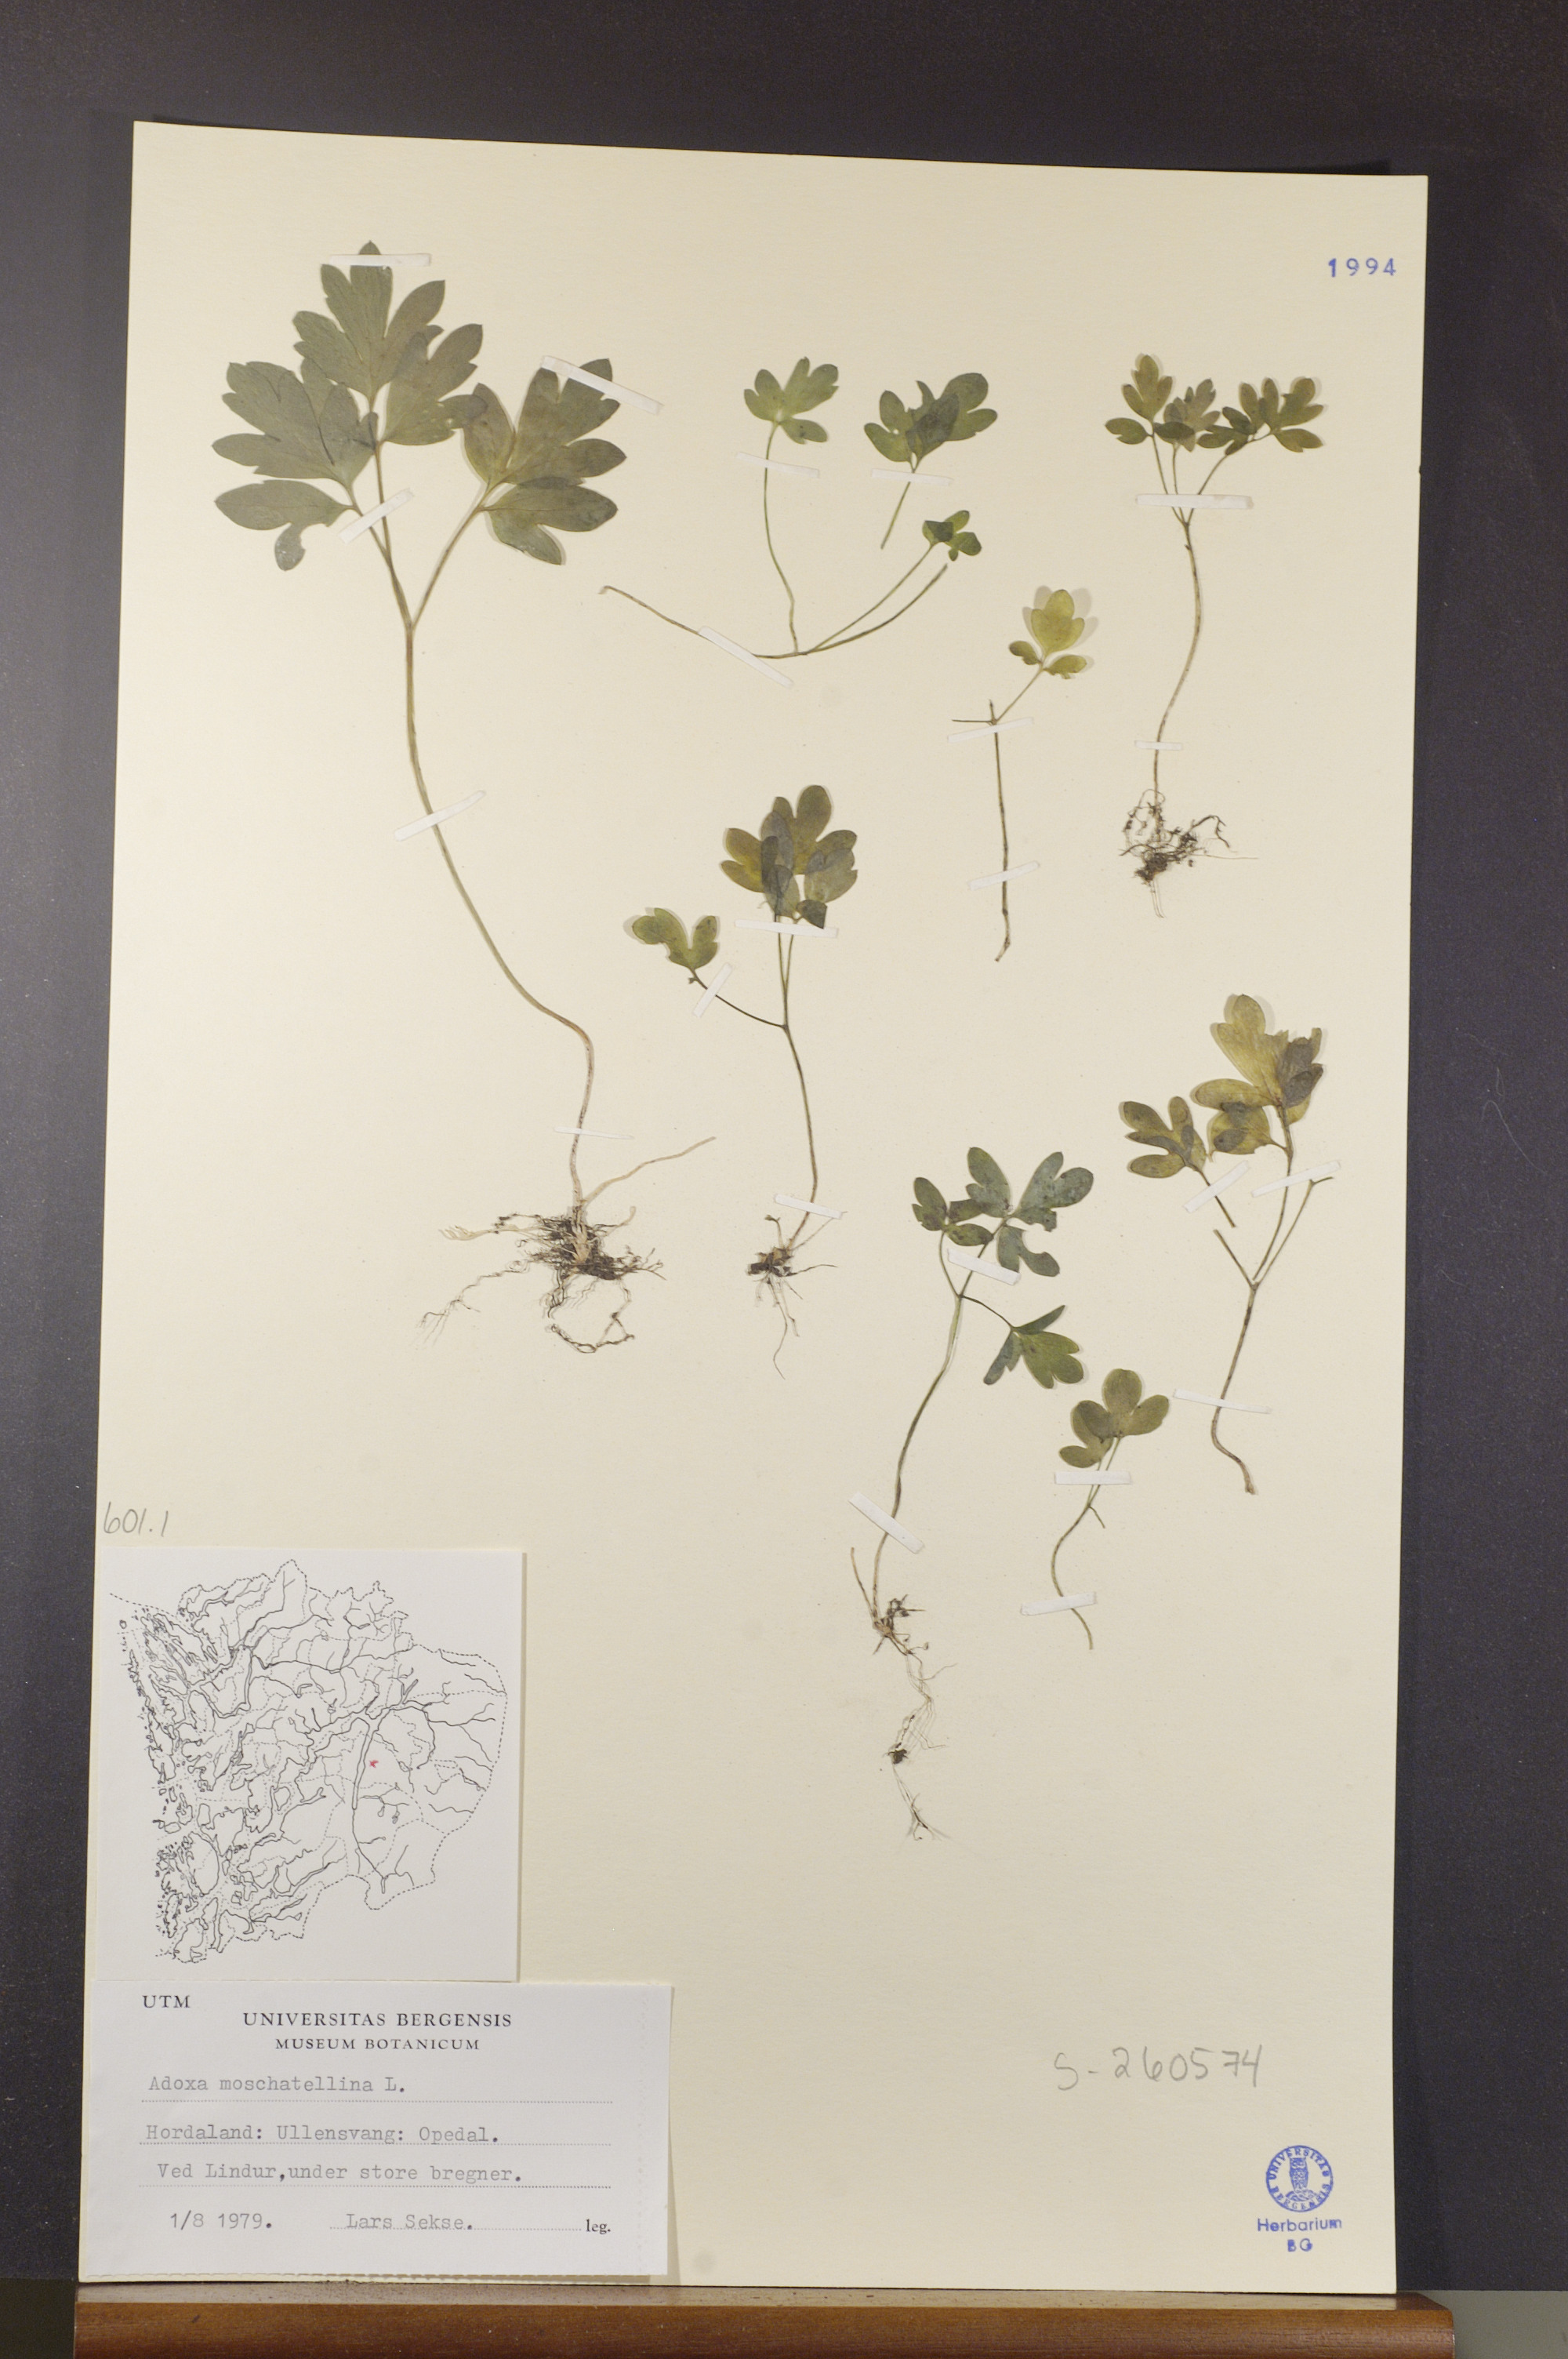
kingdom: Plantae
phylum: Tracheophyta
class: Magnoliopsida
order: Dipsacales
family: Viburnaceae
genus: Adoxa
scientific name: Adoxa moschatellina
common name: Moschatel
